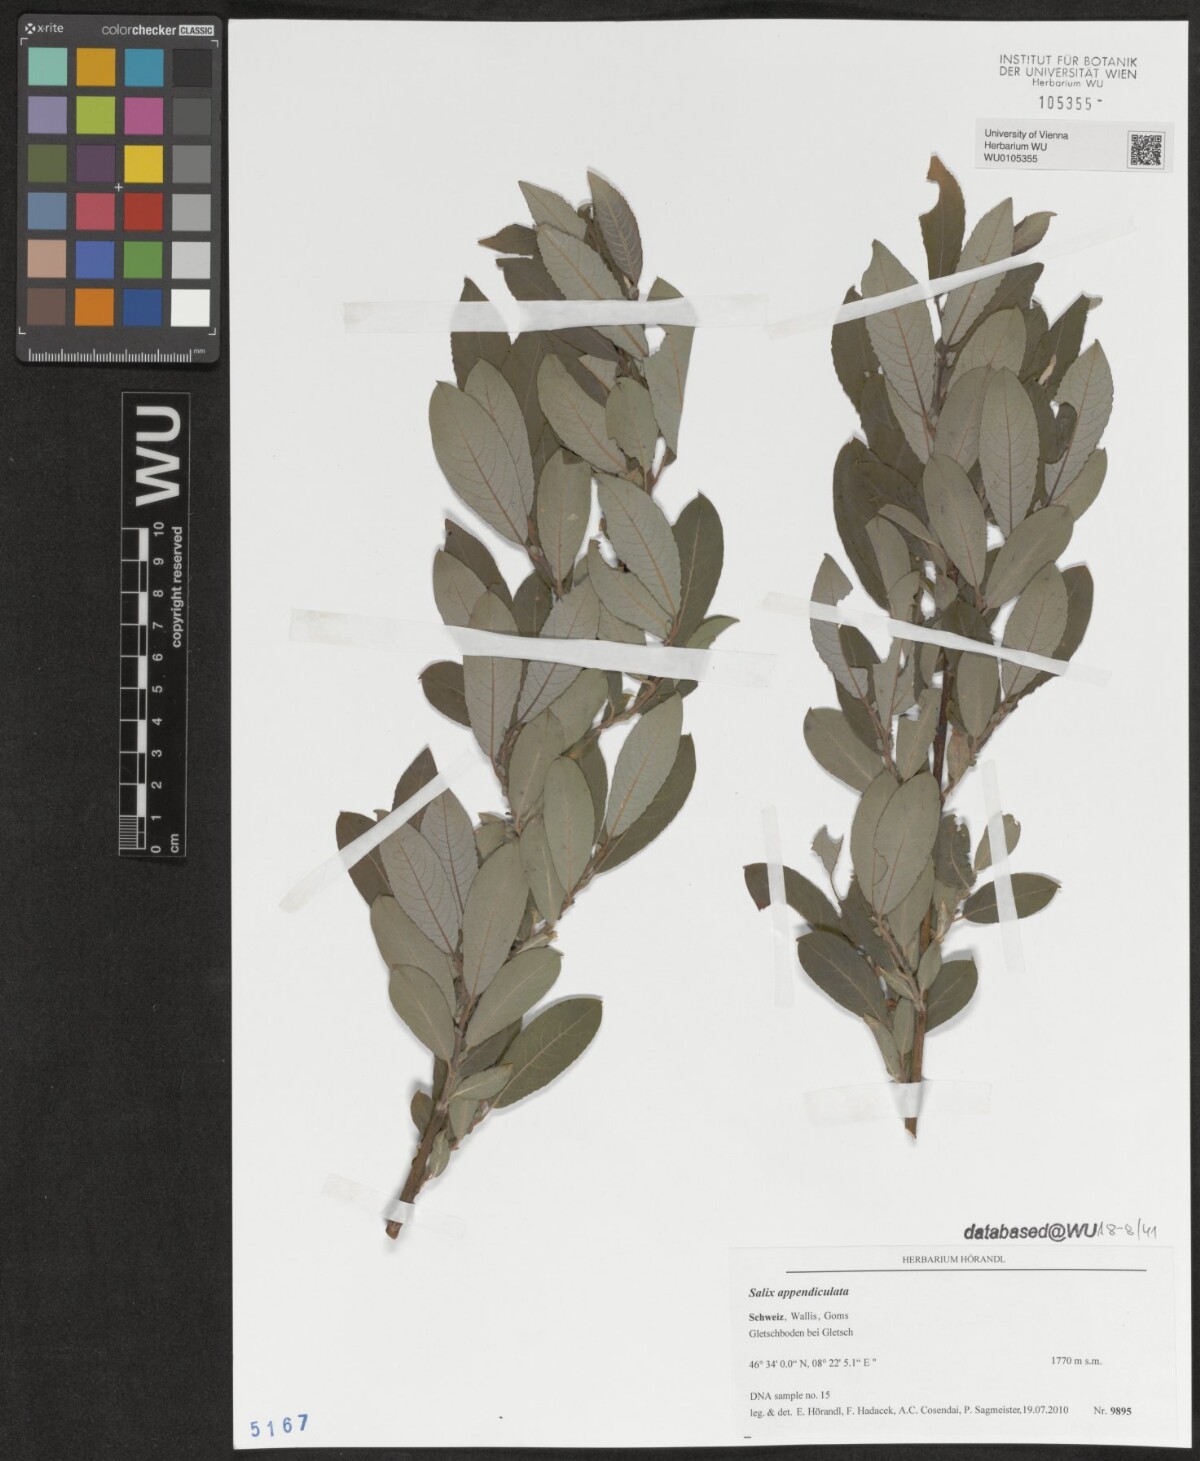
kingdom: Plantae
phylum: Tracheophyta
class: Magnoliopsida
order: Malpighiales
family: Salicaceae
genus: Salix
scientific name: Salix appendiculata
